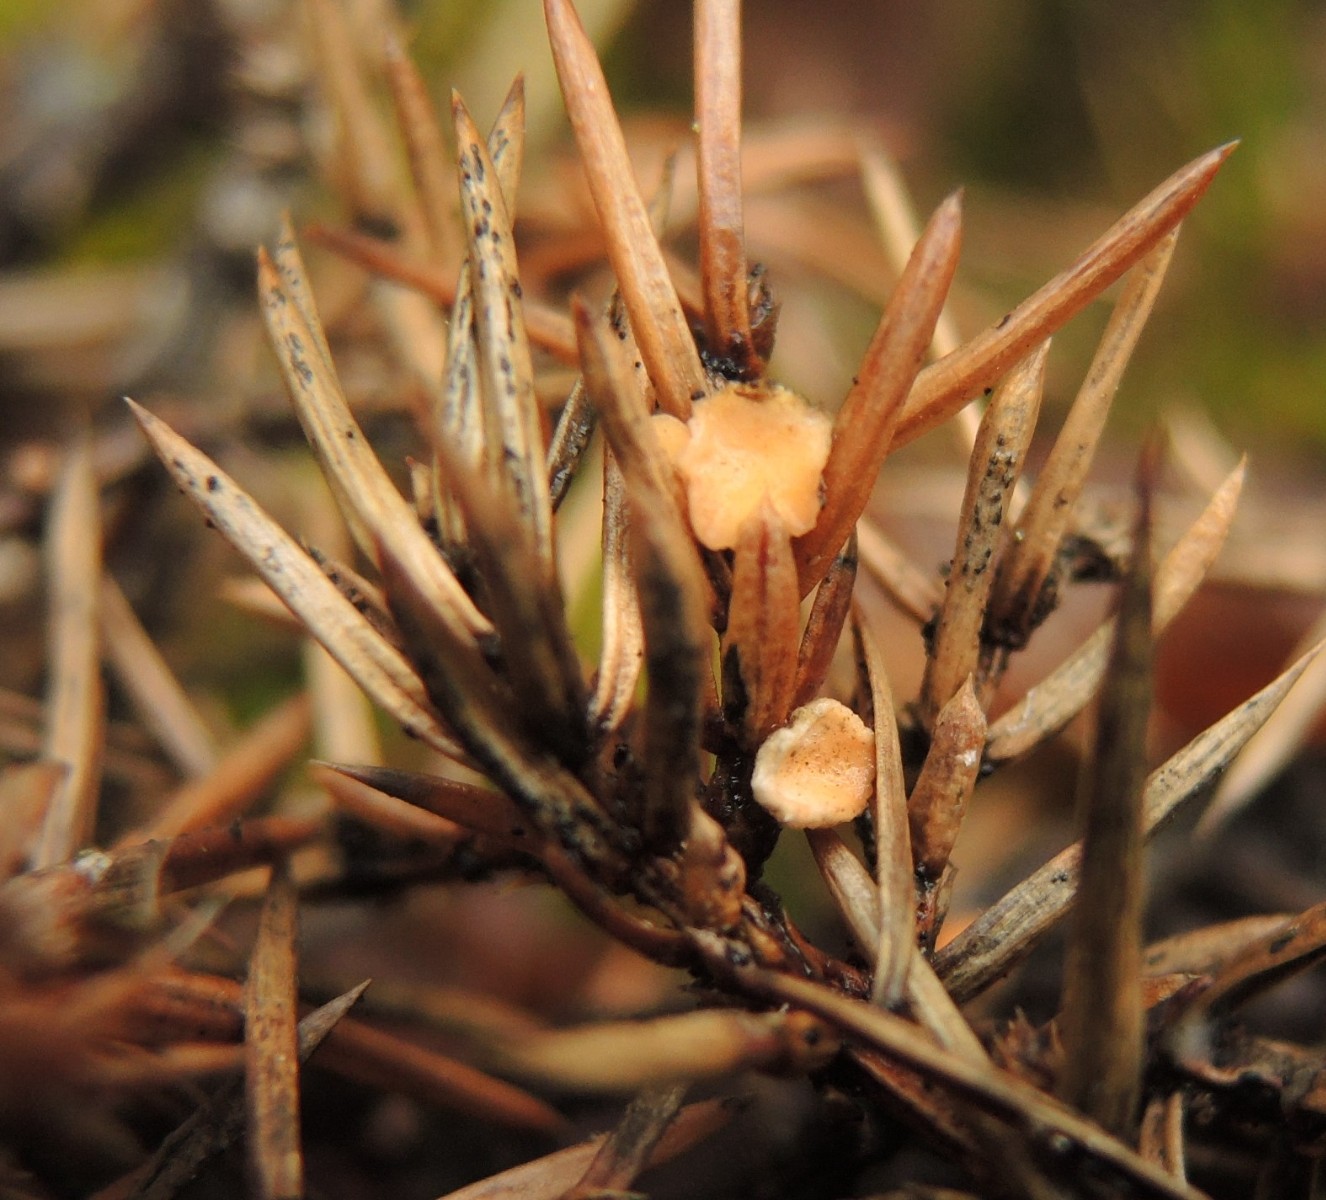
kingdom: Fungi
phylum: Ascomycota
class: Pezizomycetes
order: Pezizales
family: Sarcoscyphaceae
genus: Pithya
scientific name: Pithya cupressina
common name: lille dukatbæger
